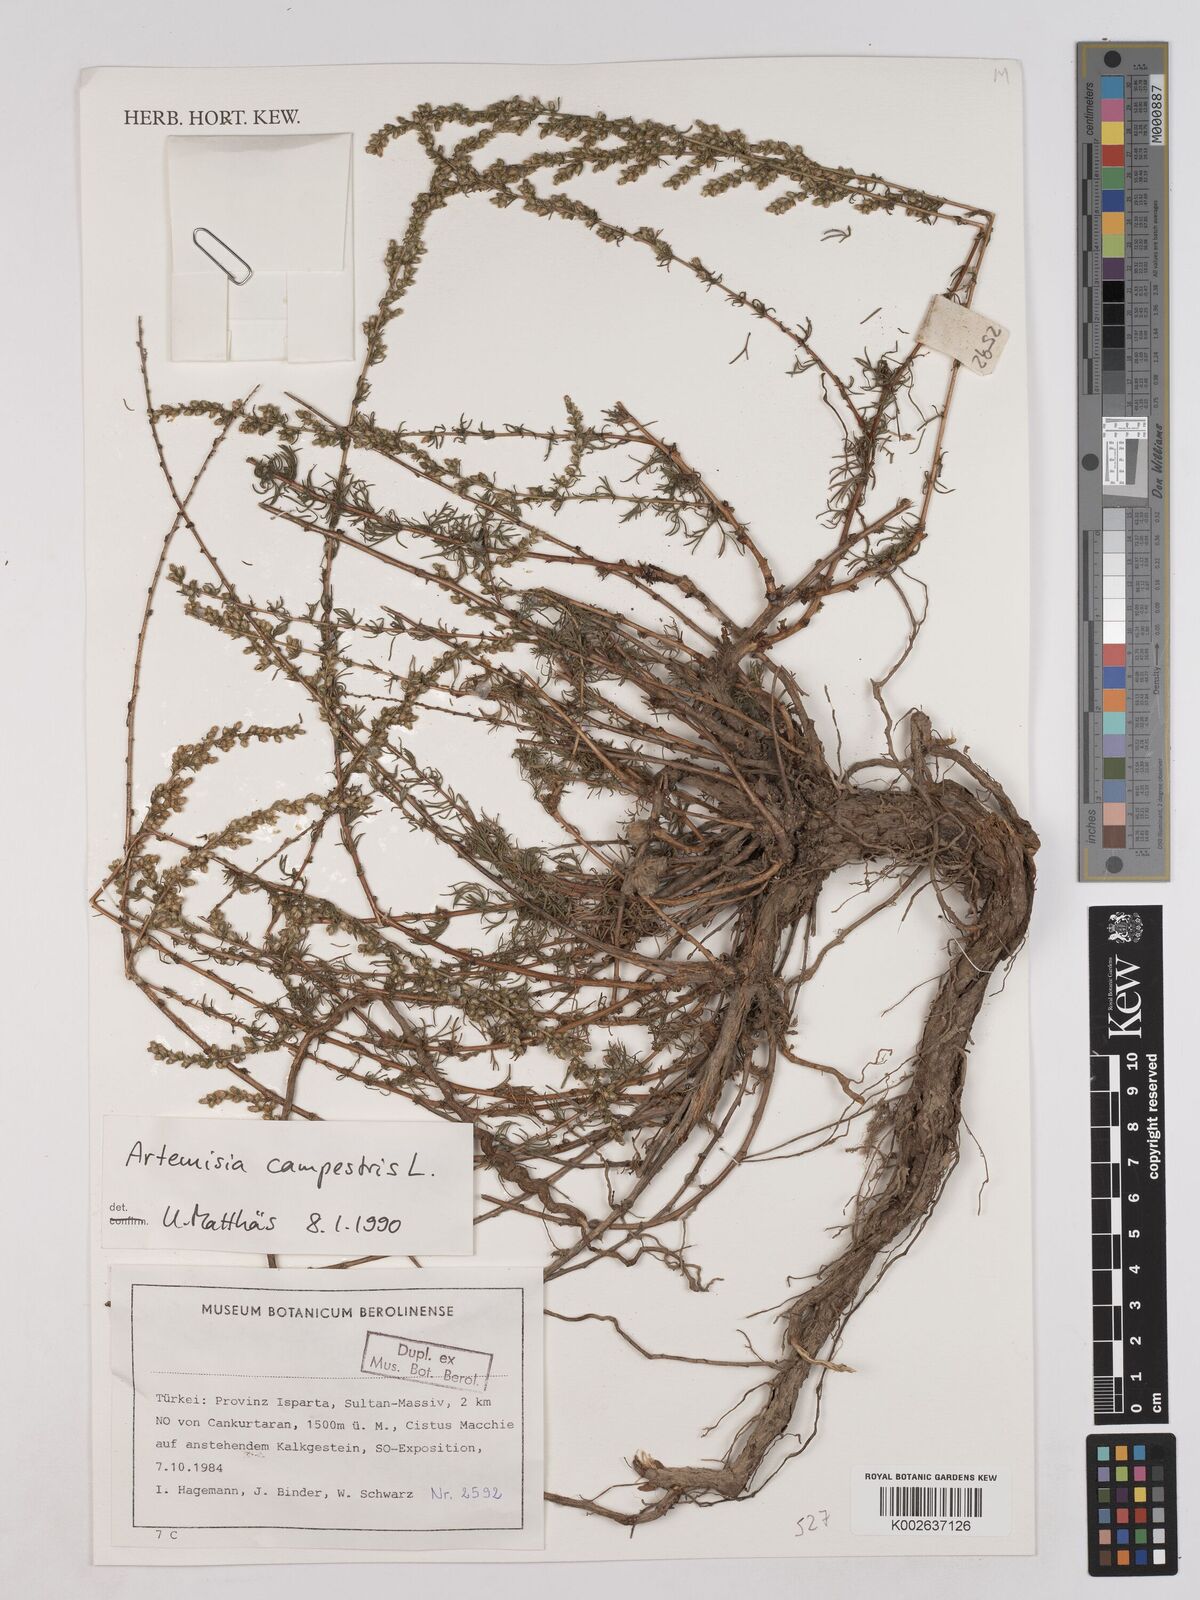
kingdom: Plantae
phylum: Tracheophyta
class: Magnoliopsida
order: Asterales
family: Asteraceae
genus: Artemisia
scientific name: Artemisia campestris
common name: Field wormwood
